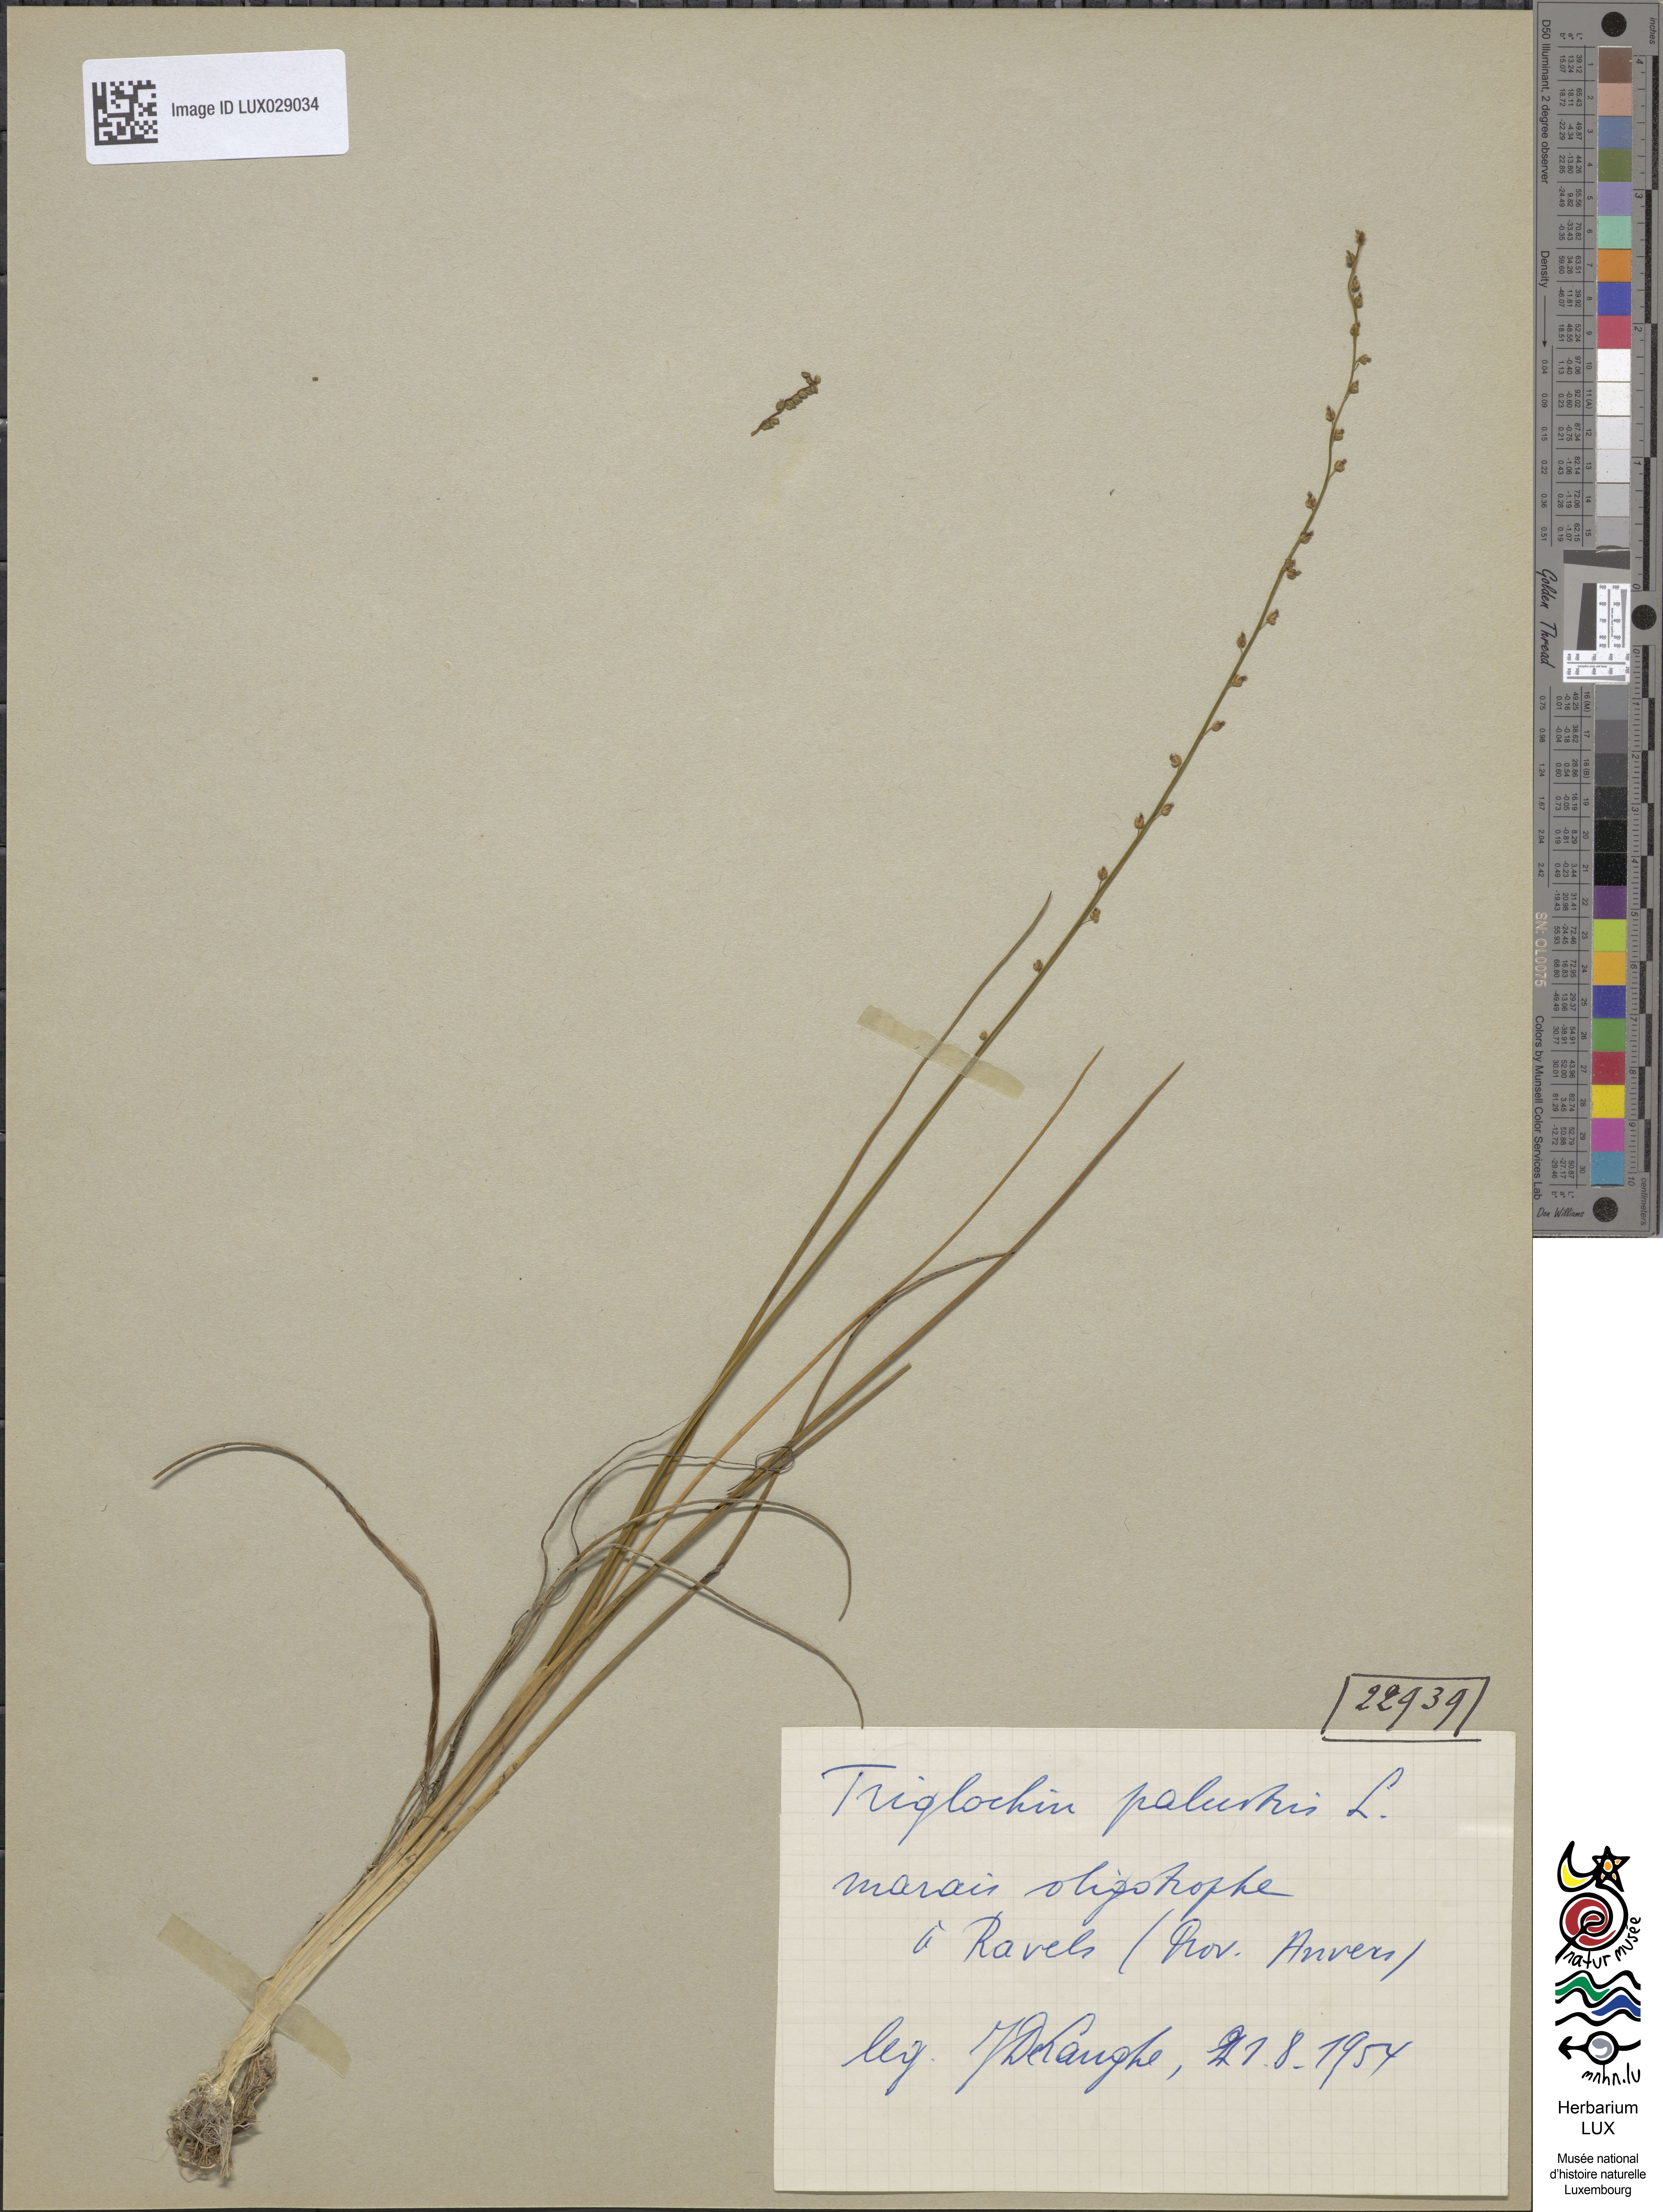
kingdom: Plantae
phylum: Tracheophyta
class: Liliopsida
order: Alismatales
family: Juncaginaceae
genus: Triglochin
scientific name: Triglochin palustris
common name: Marsh arrowgrass
